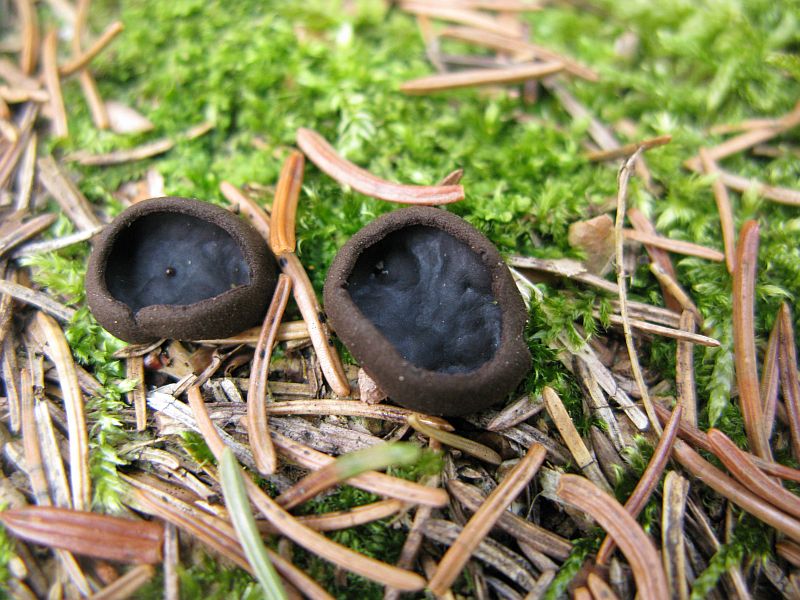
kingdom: Fungi
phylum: Ascomycota
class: Pezizomycetes
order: Pezizales
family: Sarcosomataceae
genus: Pseudoplectania
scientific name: Pseudoplectania nigrella
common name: almindelig sortbæger
